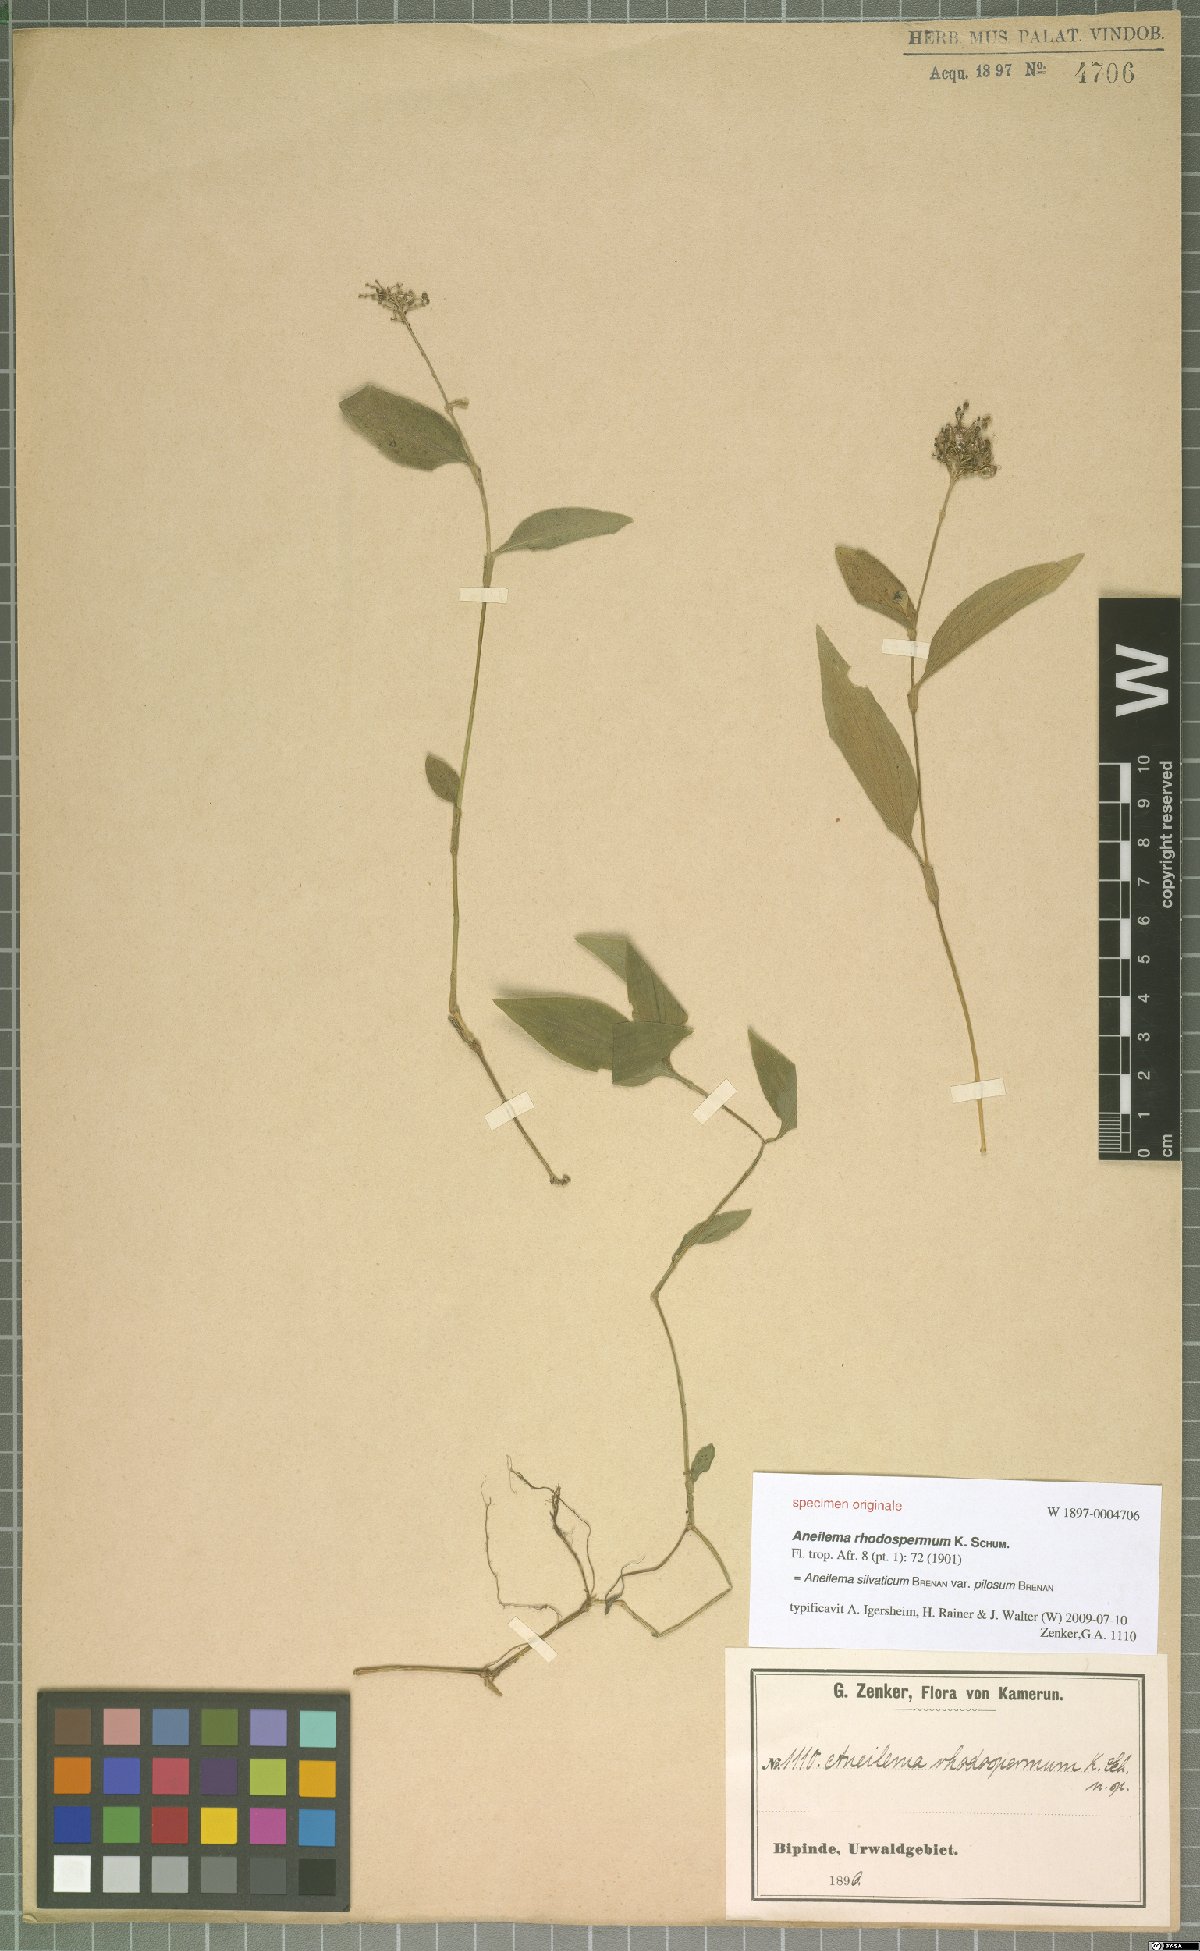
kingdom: Plantae
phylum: Tracheophyta
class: Liliopsida
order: Commelinales
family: Commelinaceae
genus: Aneilema
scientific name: Aneilema silvaticum
